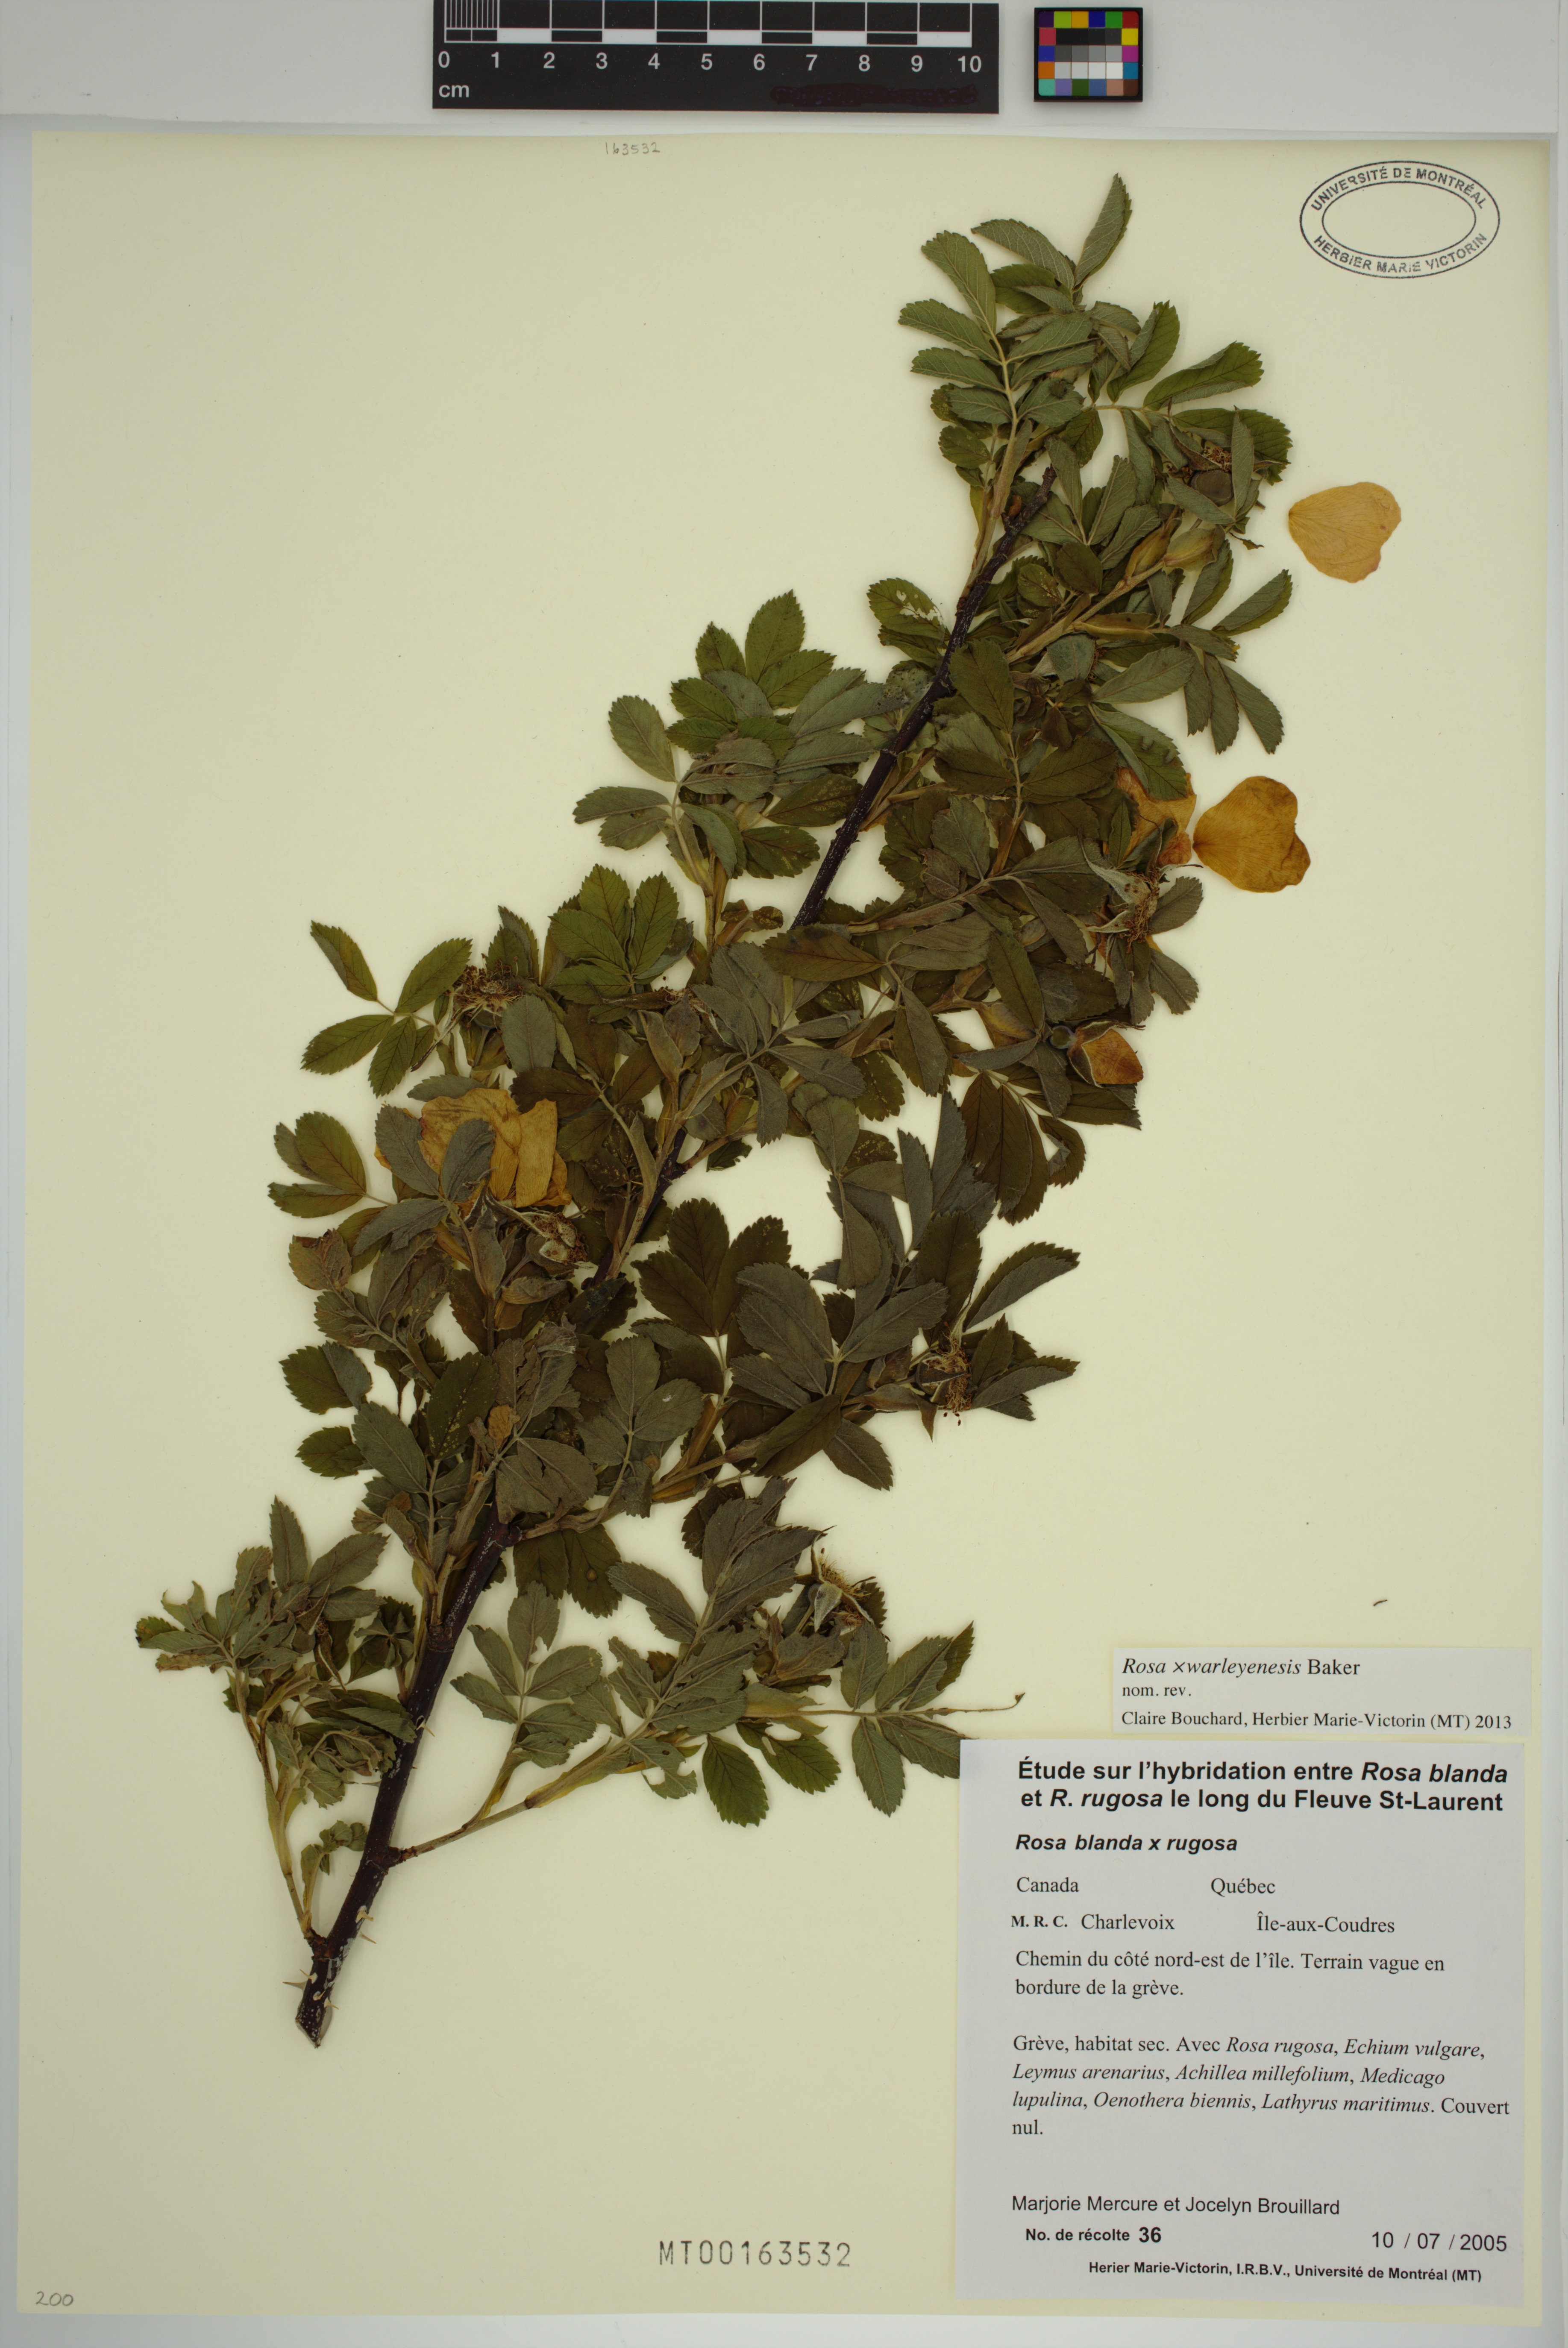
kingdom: Plantae
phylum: Tracheophyta
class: Magnoliopsida
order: Rosales
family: Rosaceae
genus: Rosa
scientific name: Rosa warleyensis
